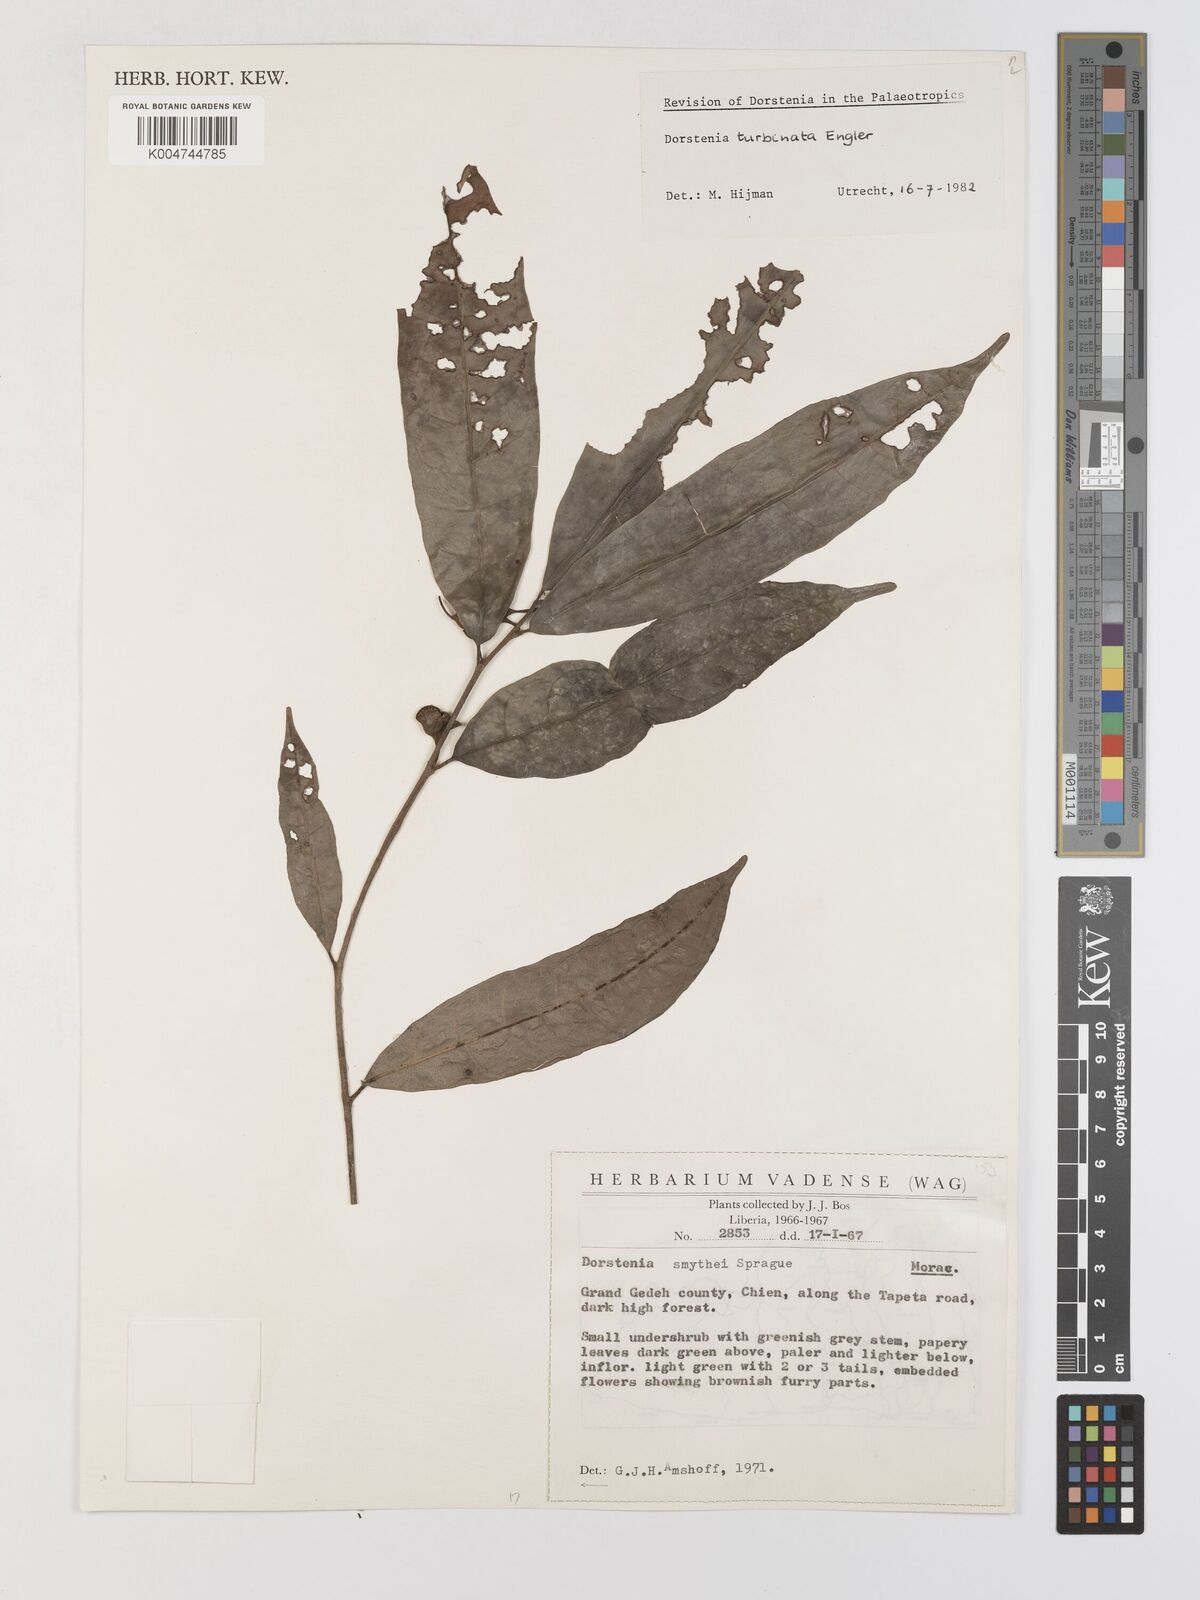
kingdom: Plantae
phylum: Tracheophyta
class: Magnoliopsida
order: Rosales
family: Moraceae
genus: Hijmania
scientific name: Hijmania turbinata
